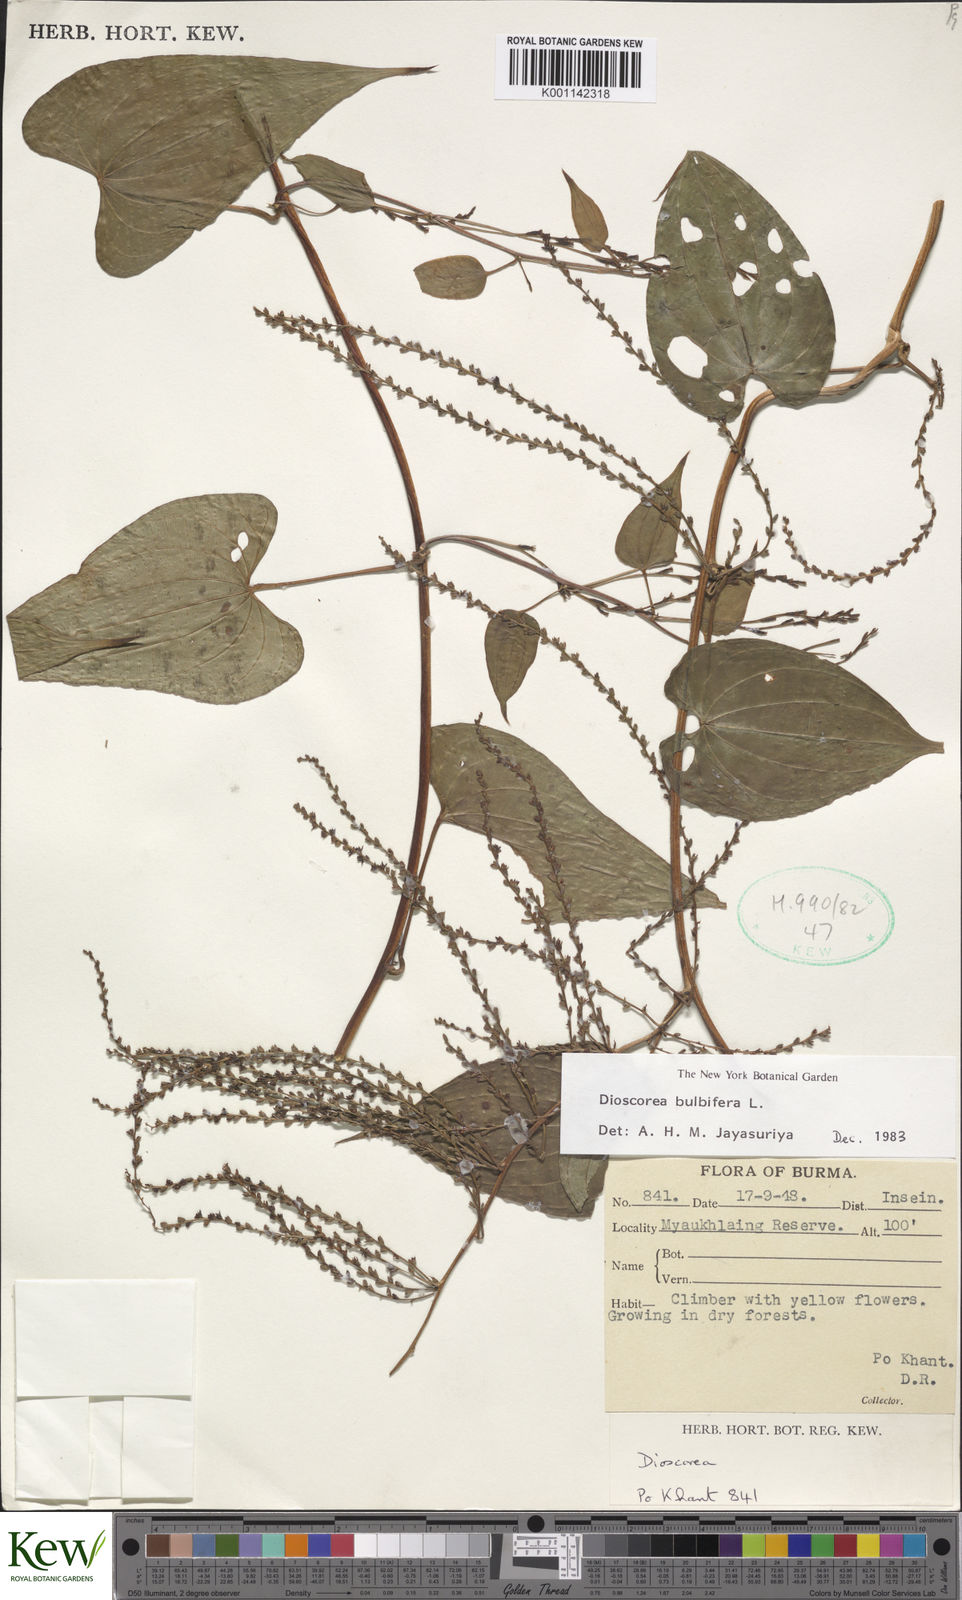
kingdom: Plantae
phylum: Tracheophyta
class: Liliopsida
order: Dioscoreales
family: Dioscoreaceae
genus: Dioscorea
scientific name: Dioscorea bulbifera
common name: Air yam
